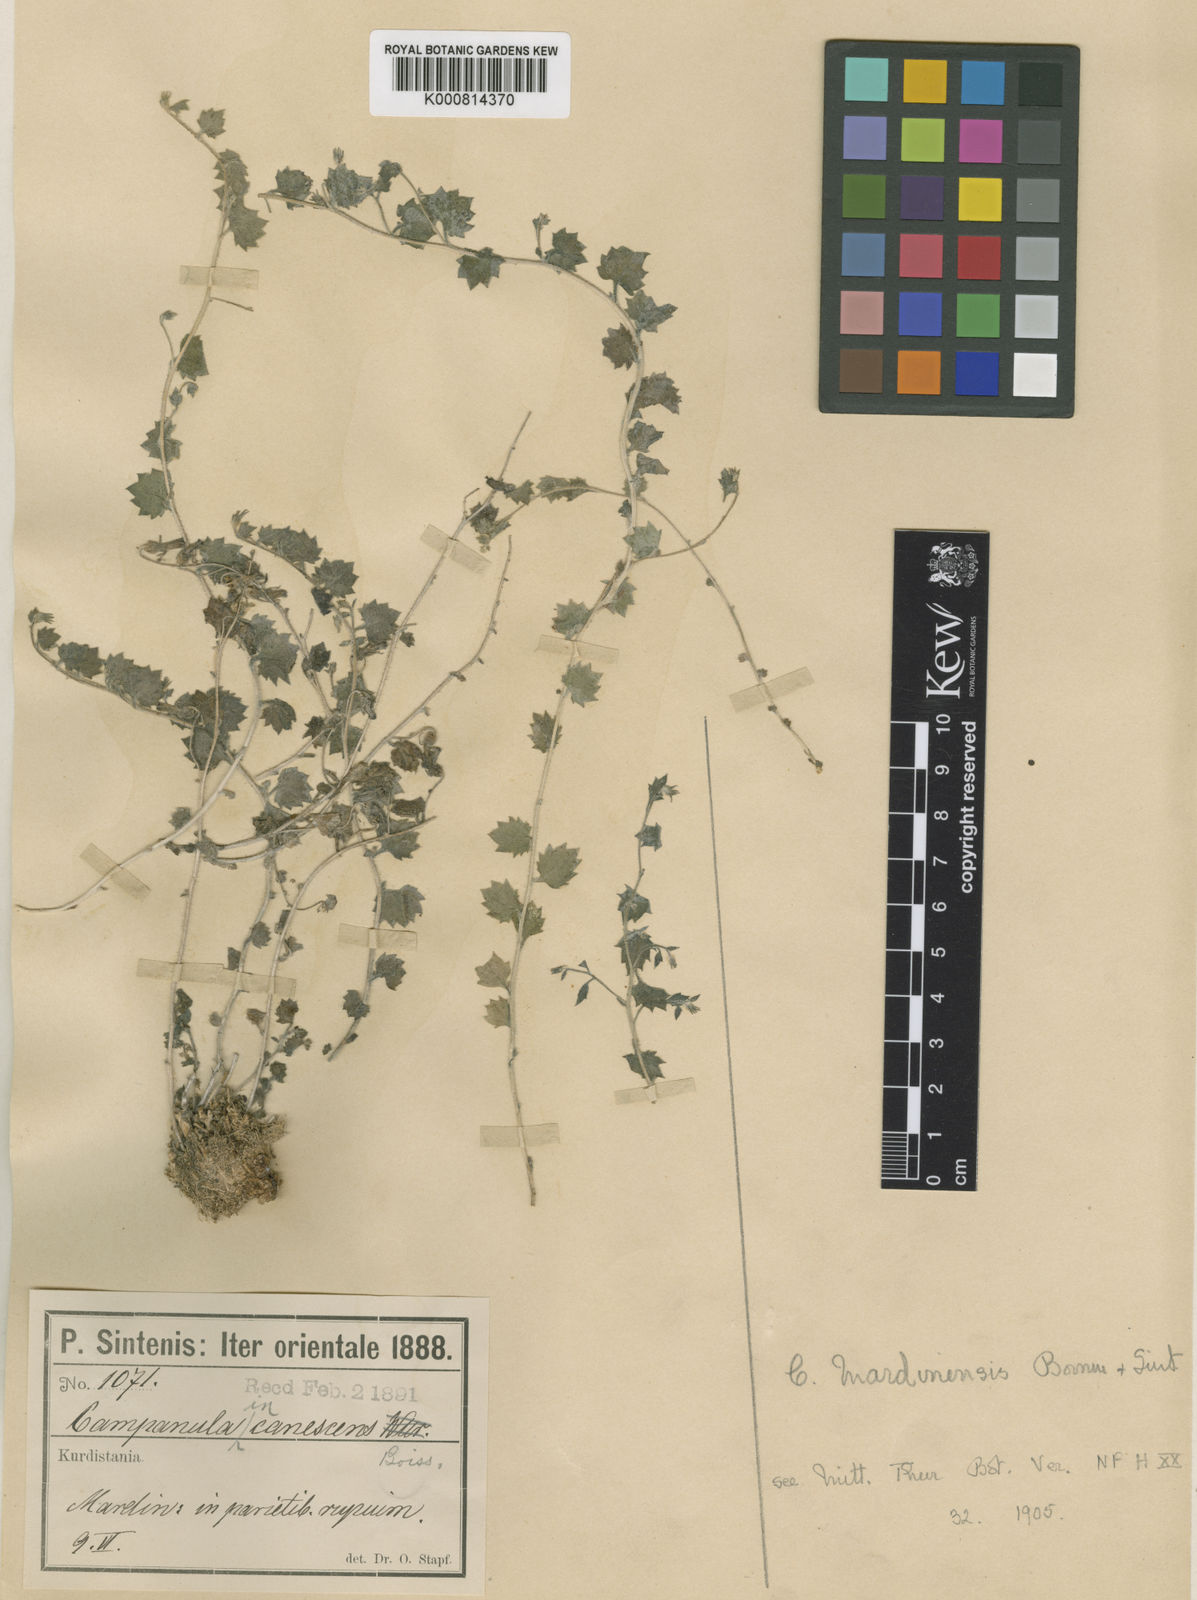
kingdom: Plantae
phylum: Tracheophyta
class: Magnoliopsida
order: Asterales
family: Campanulaceae
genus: Campanula
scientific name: Campanula mardinensis
